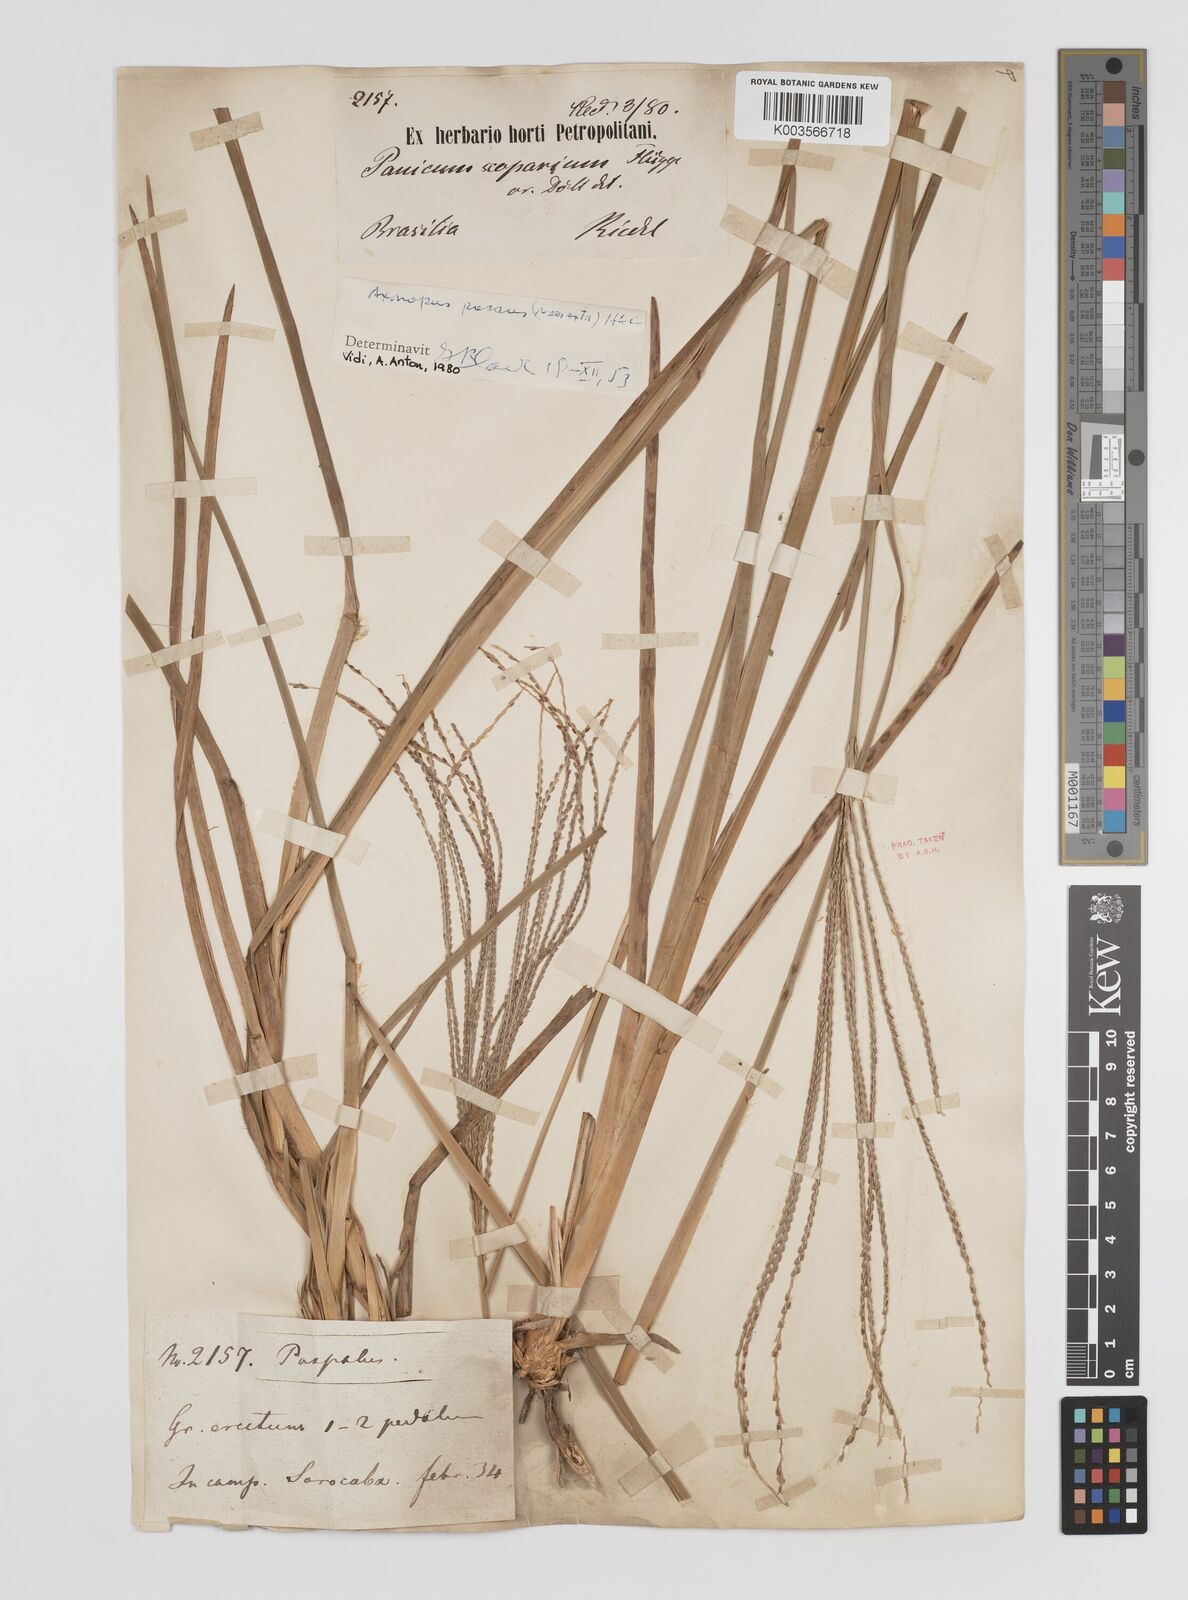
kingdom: Plantae
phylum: Tracheophyta
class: Liliopsida
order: Poales
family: Poaceae
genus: Axonopus
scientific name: Axonopus pressus
